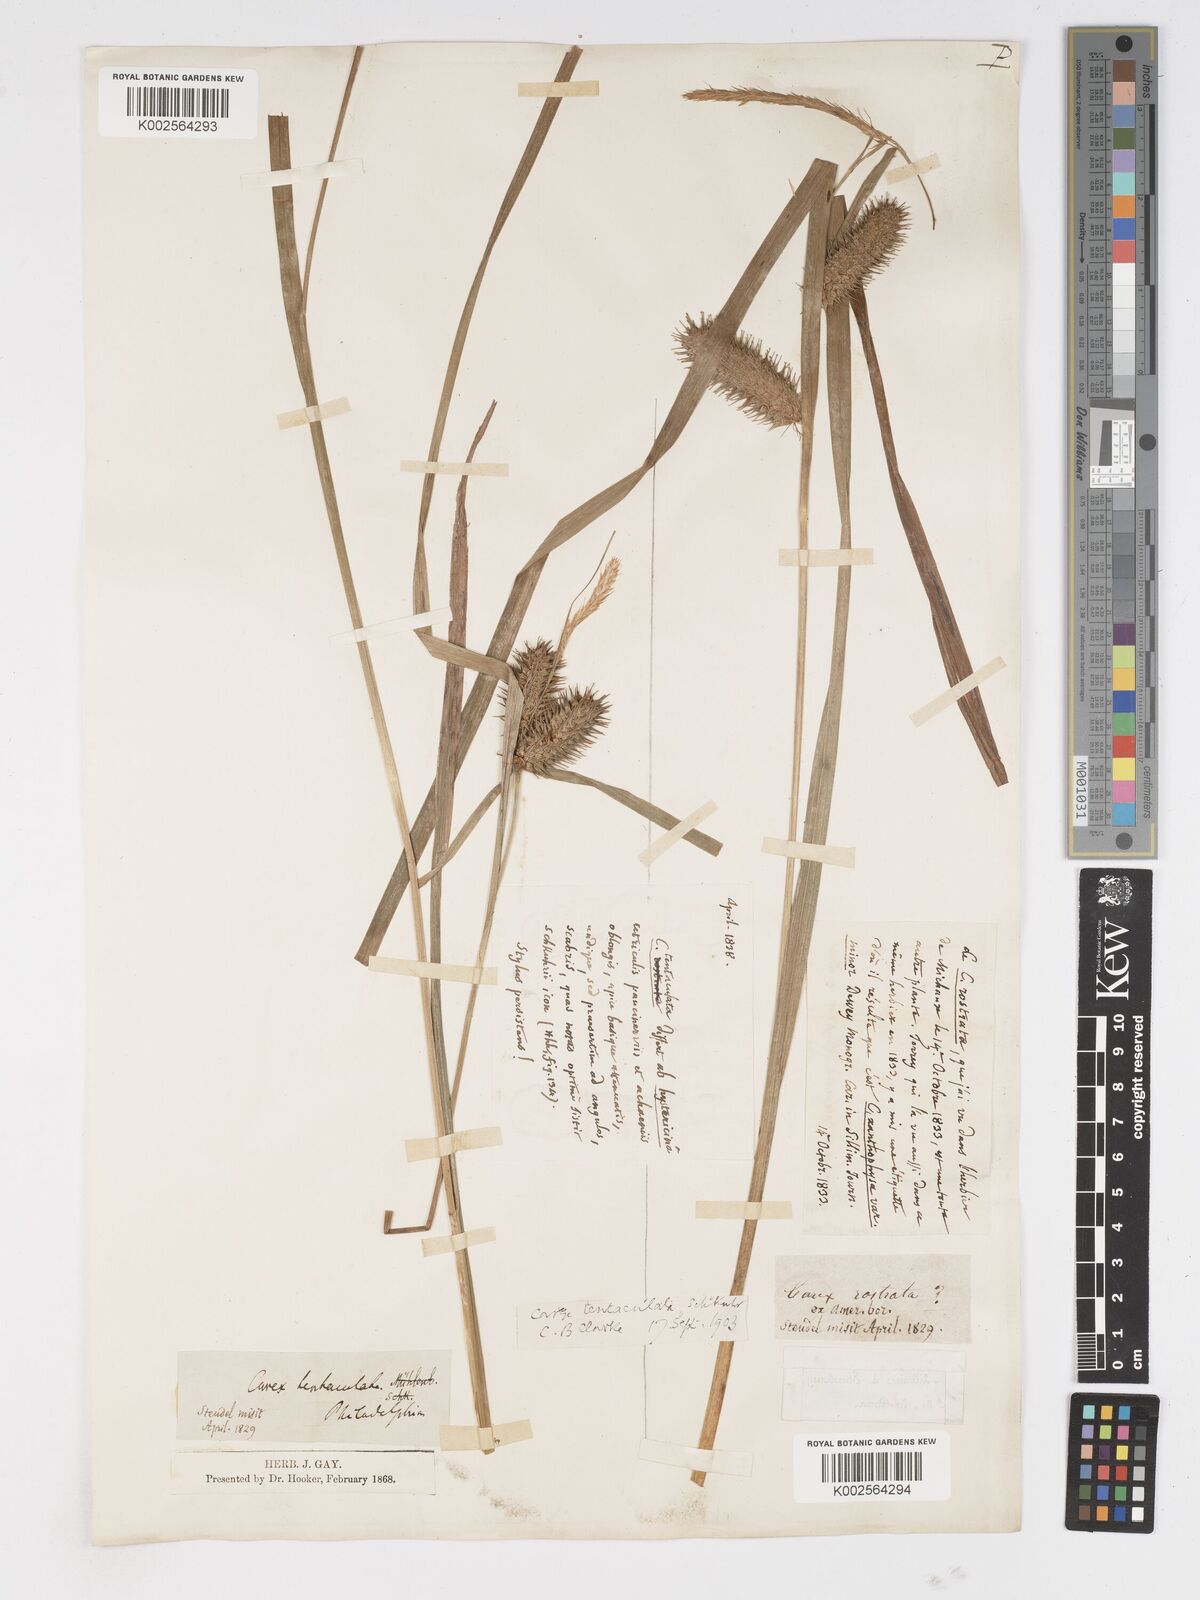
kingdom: Plantae
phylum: Tracheophyta
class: Liliopsida
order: Poales
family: Cyperaceae
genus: Carex
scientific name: Carex lurida
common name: Sallow sedge
